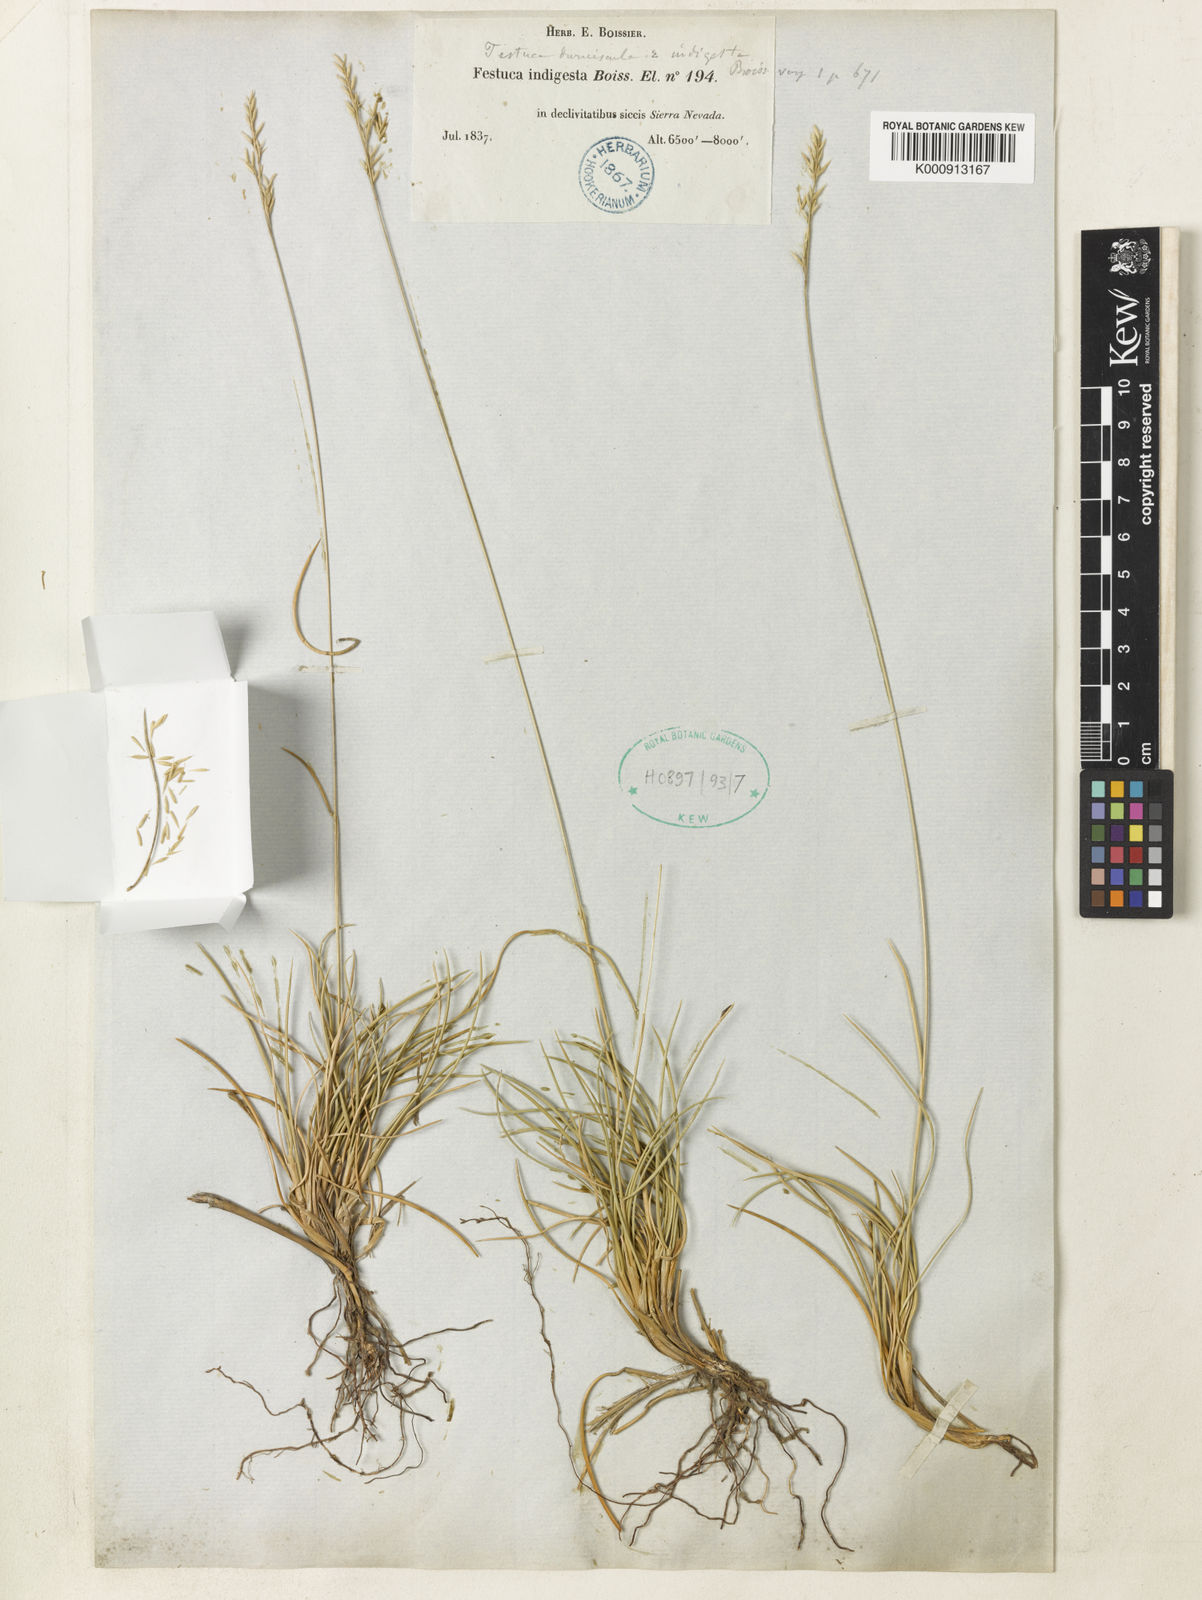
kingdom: Plantae
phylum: Tracheophyta
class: Liliopsida
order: Poales
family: Poaceae
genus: Festuca
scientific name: Festuca indigesta
